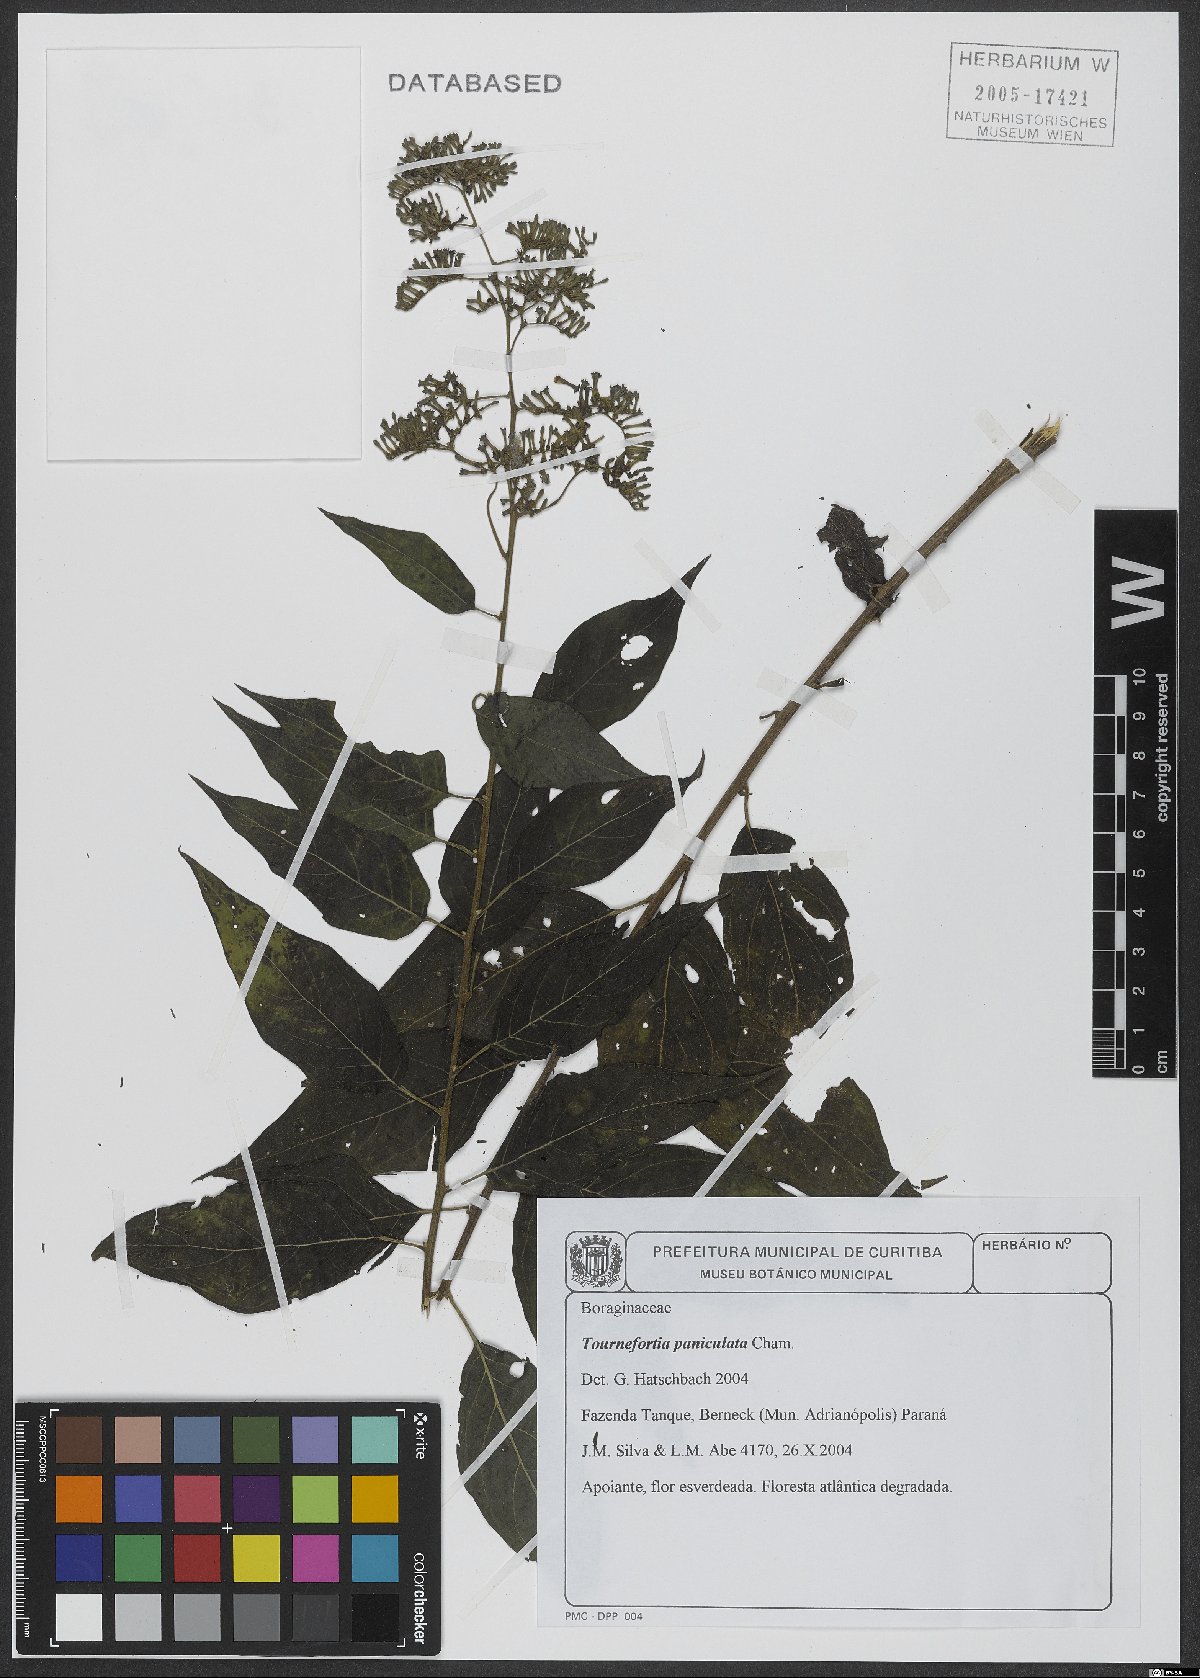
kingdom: Plantae
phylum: Tracheophyta
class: Magnoliopsida
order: Boraginales
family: Heliotropiaceae
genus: Myriopus
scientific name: Myriopus paniculatus
